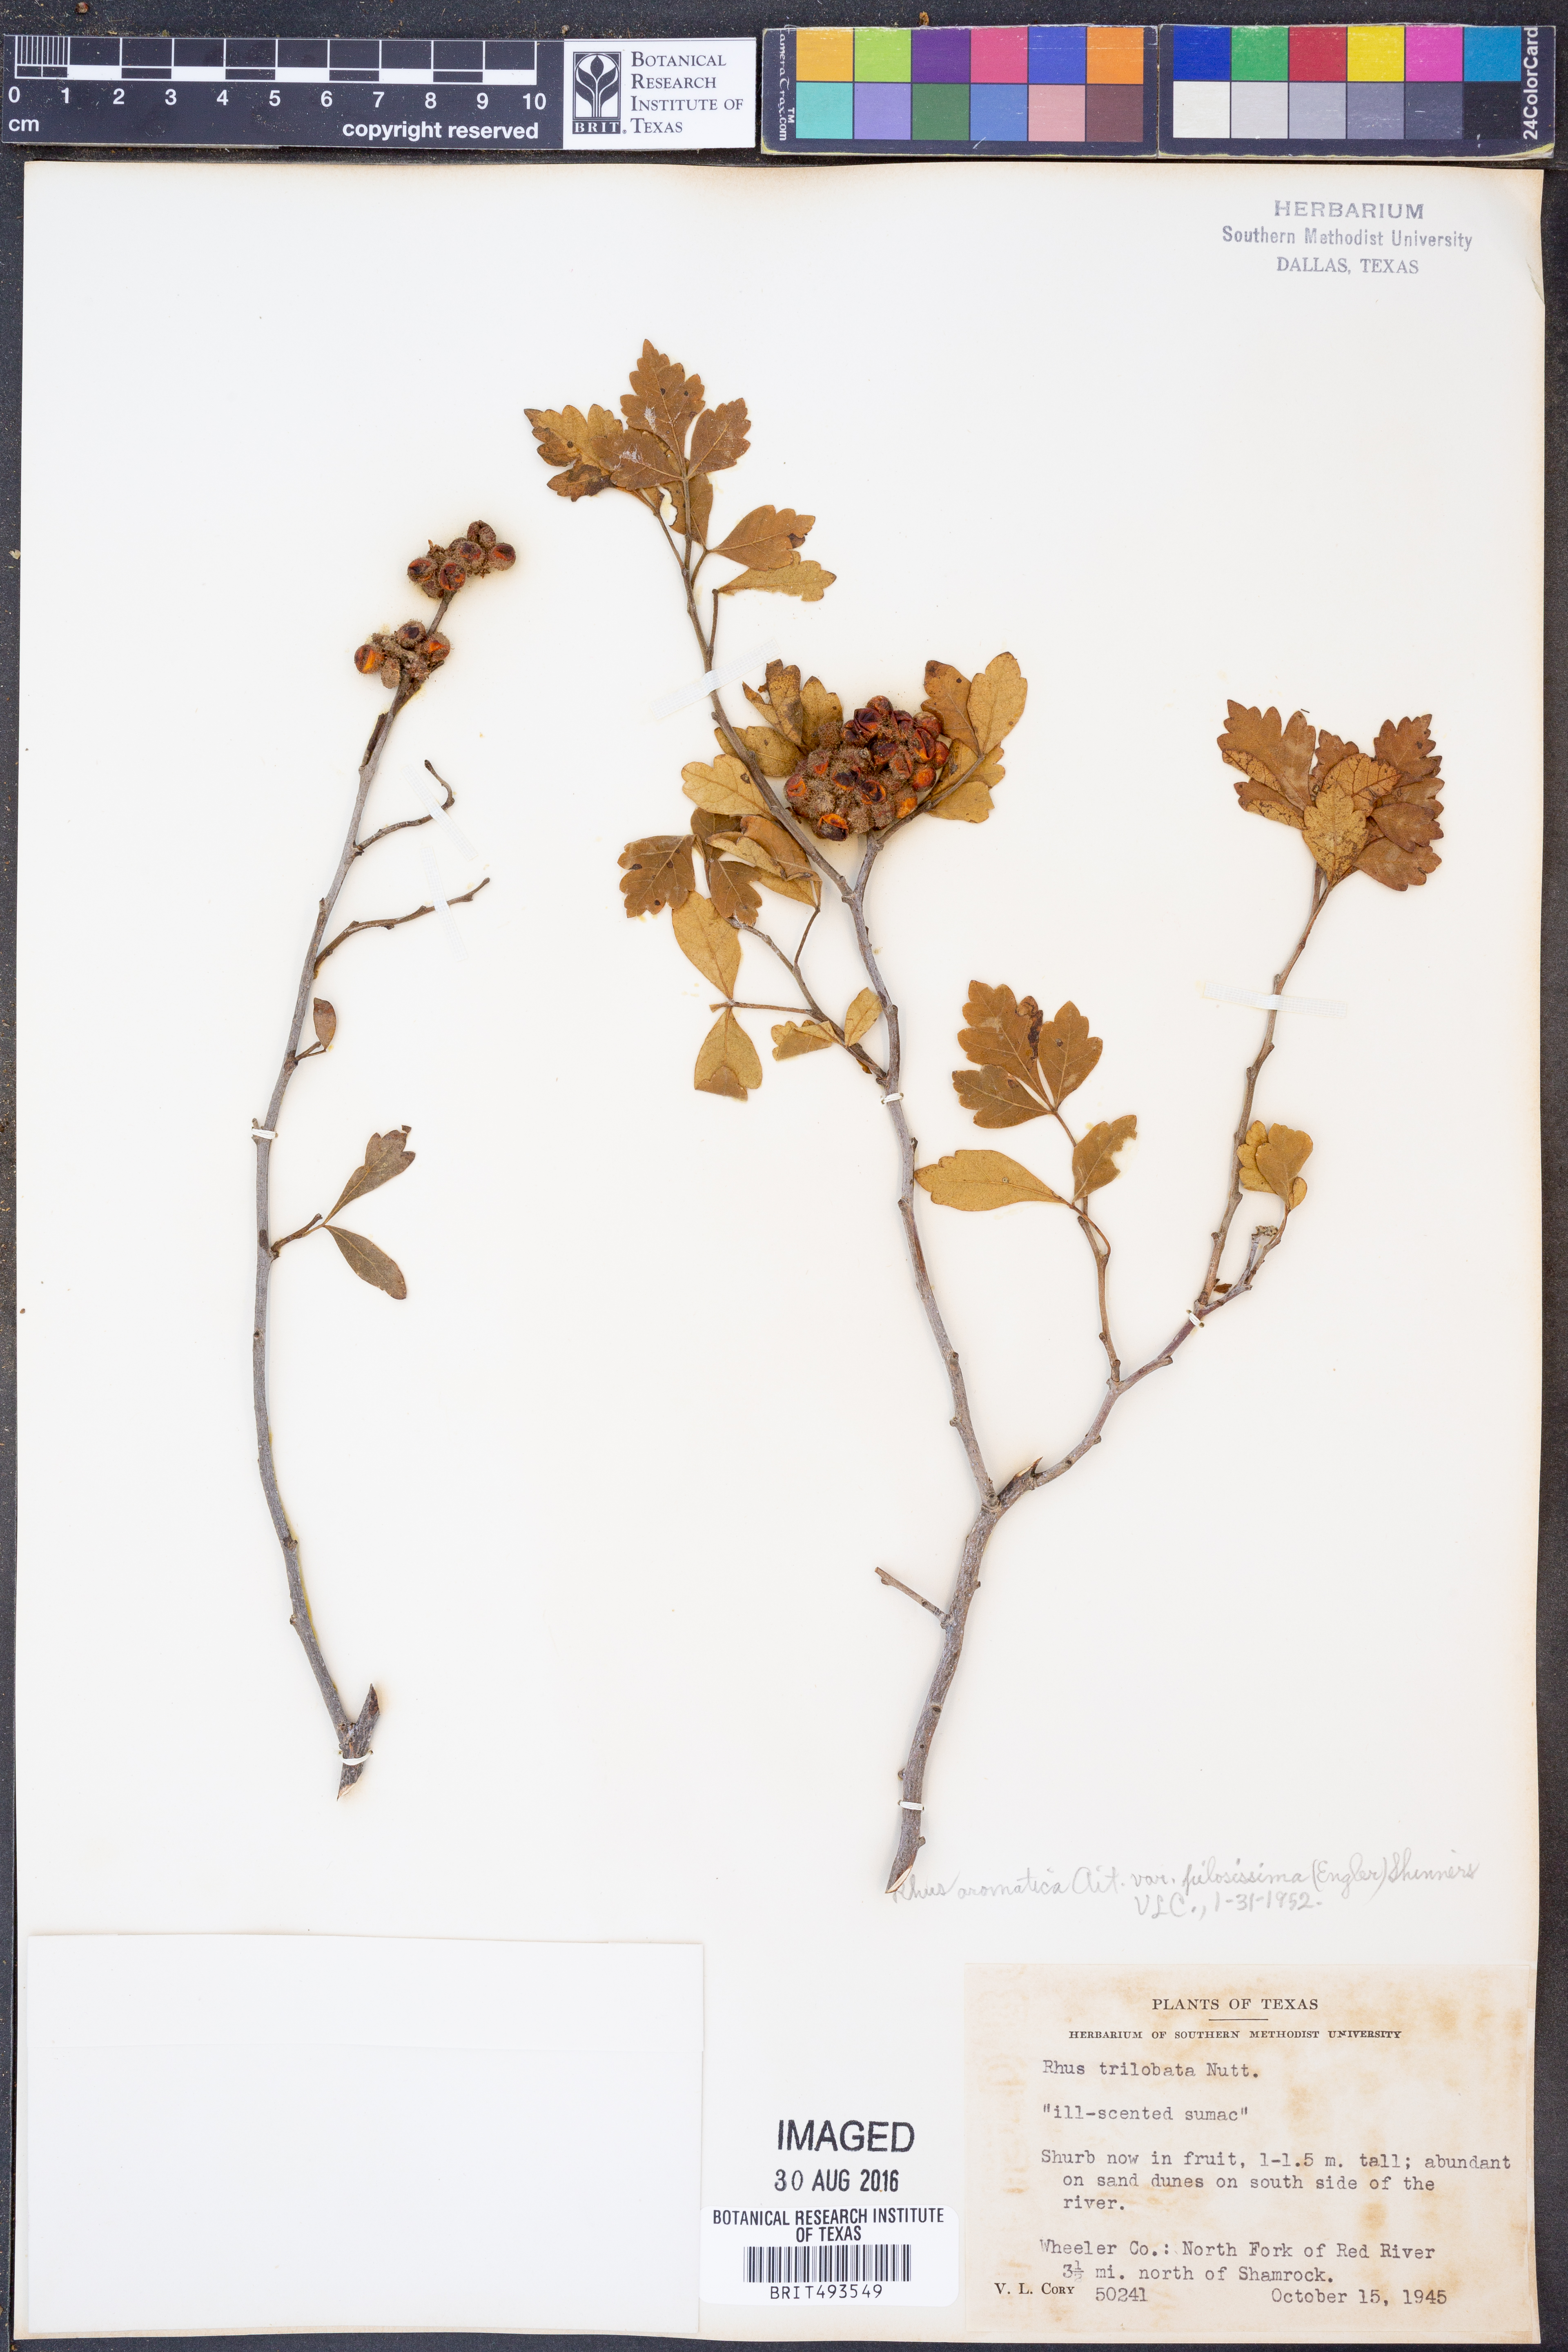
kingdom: Plantae
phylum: Tracheophyta
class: Magnoliopsida
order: Sapindales
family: Anacardiaceae
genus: Rhus
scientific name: Rhus trilobata
